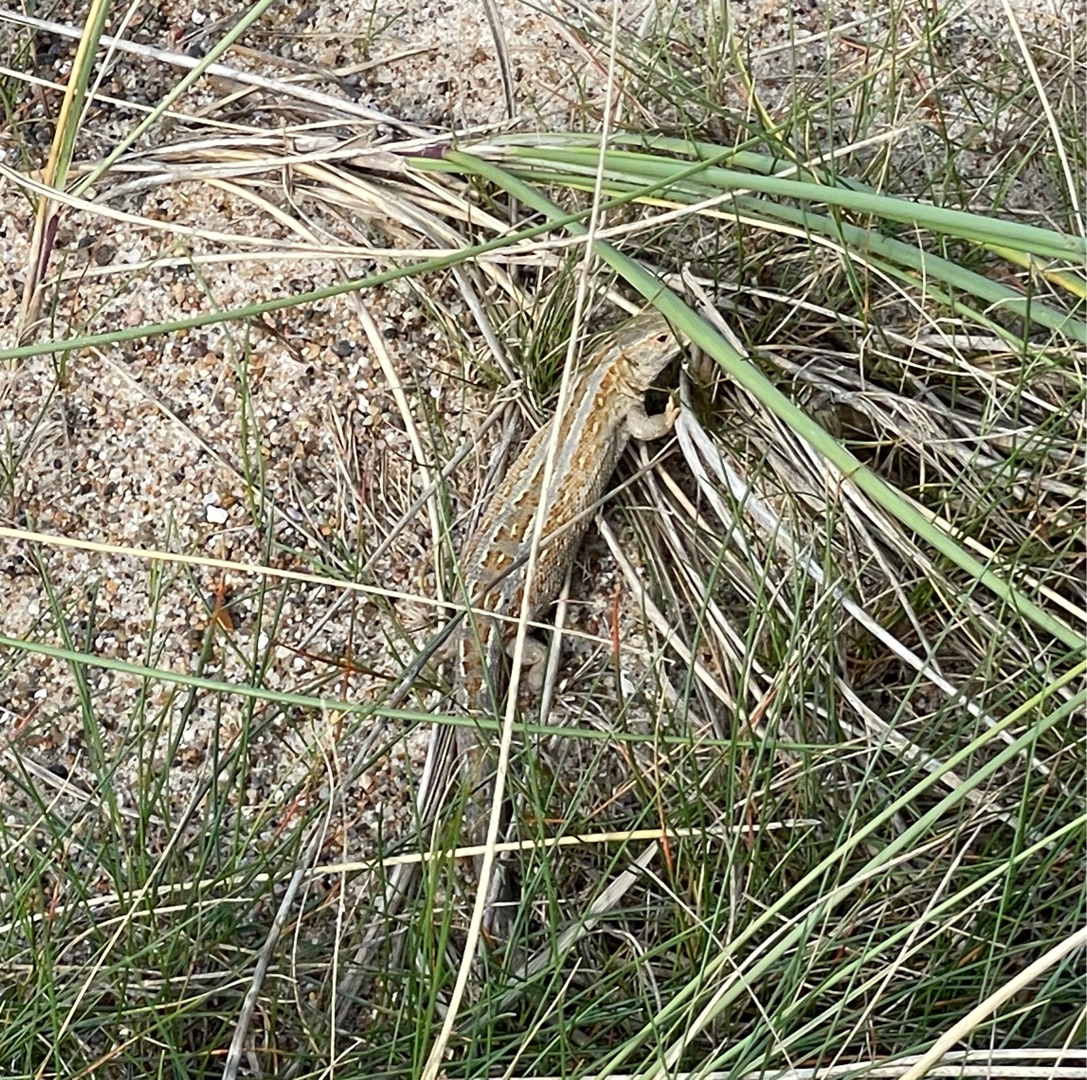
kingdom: Animalia
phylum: Chordata
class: Squamata
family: Lacertidae
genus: Lacerta
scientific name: Lacerta agilis
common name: Markfirben
